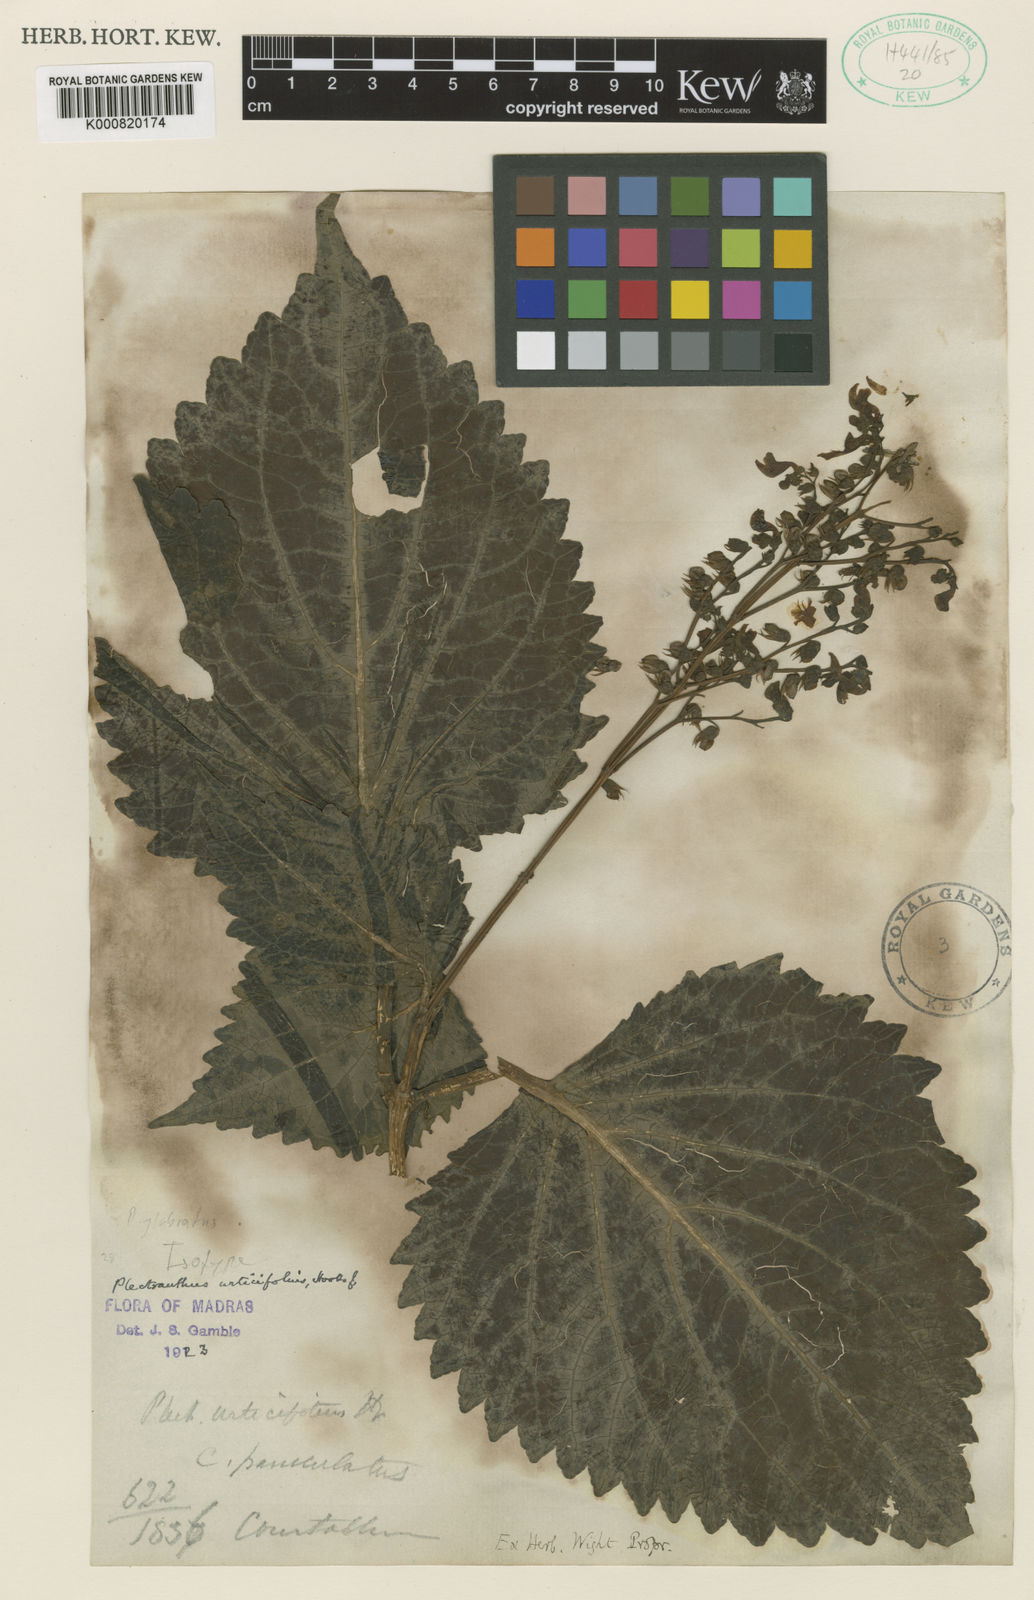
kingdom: Plantae
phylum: Tracheophyta
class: Magnoliopsida
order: Lamiales
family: Lamiaceae
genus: Coleus
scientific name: Coleus urticifolius
